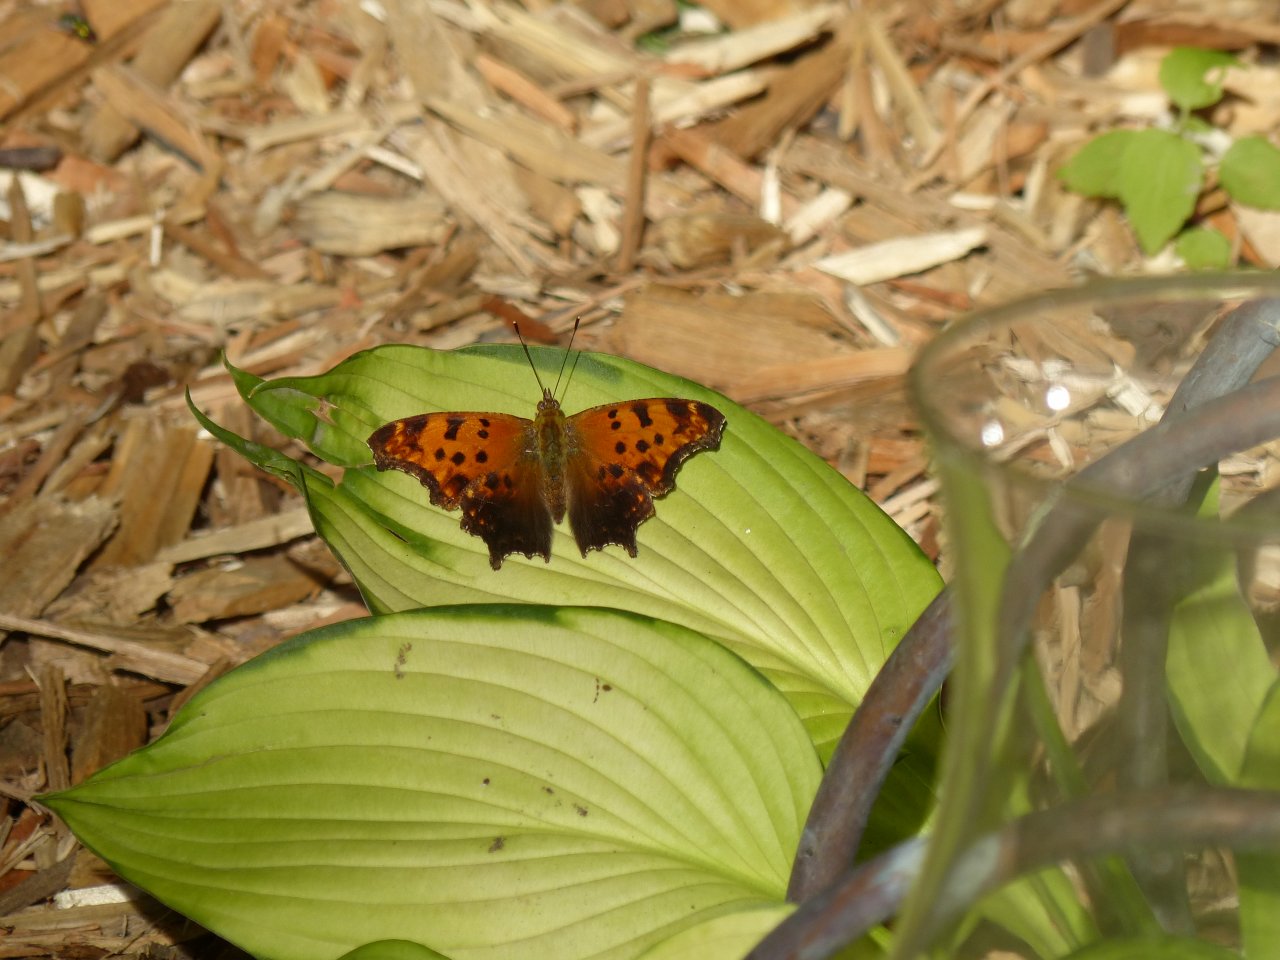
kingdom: Animalia
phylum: Arthropoda
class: Insecta
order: Lepidoptera
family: Nymphalidae
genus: Polygonia
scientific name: Polygonia comma
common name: Eastern Comma
